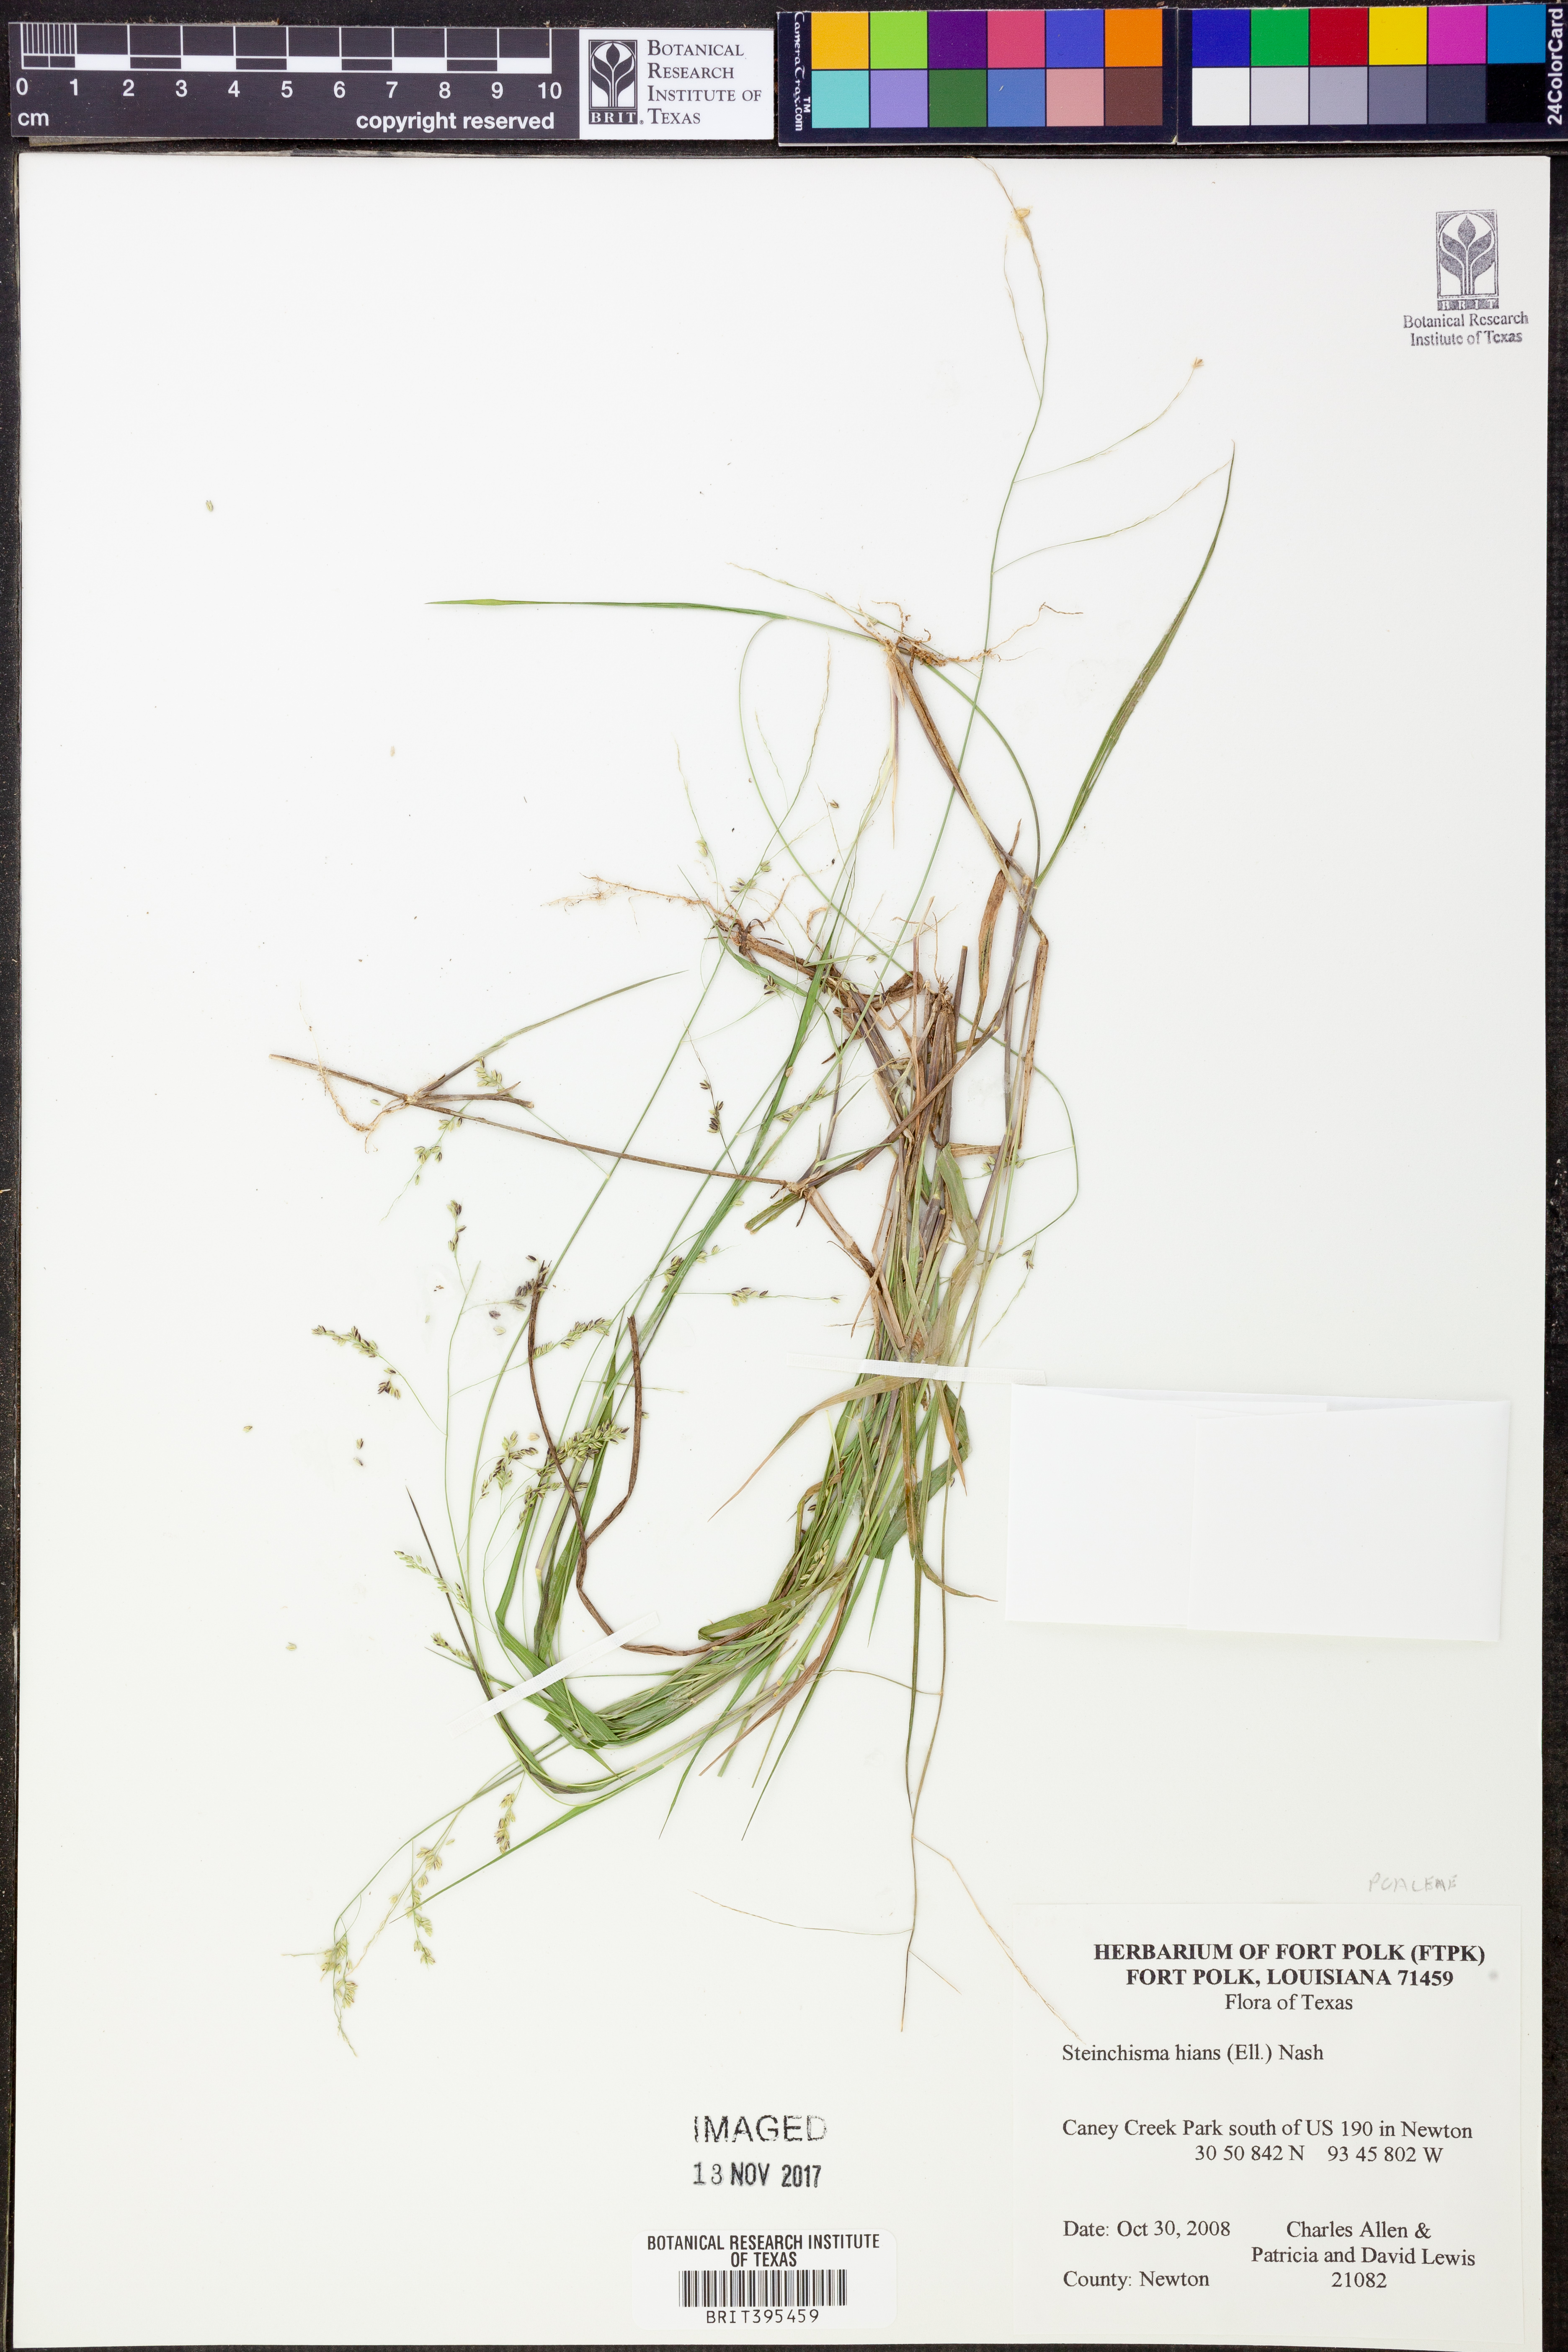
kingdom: Plantae
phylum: Tracheophyta
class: Liliopsida
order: Poales
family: Poaceae
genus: Steinchisma
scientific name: Steinchisma hians
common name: Gaping panic grass
